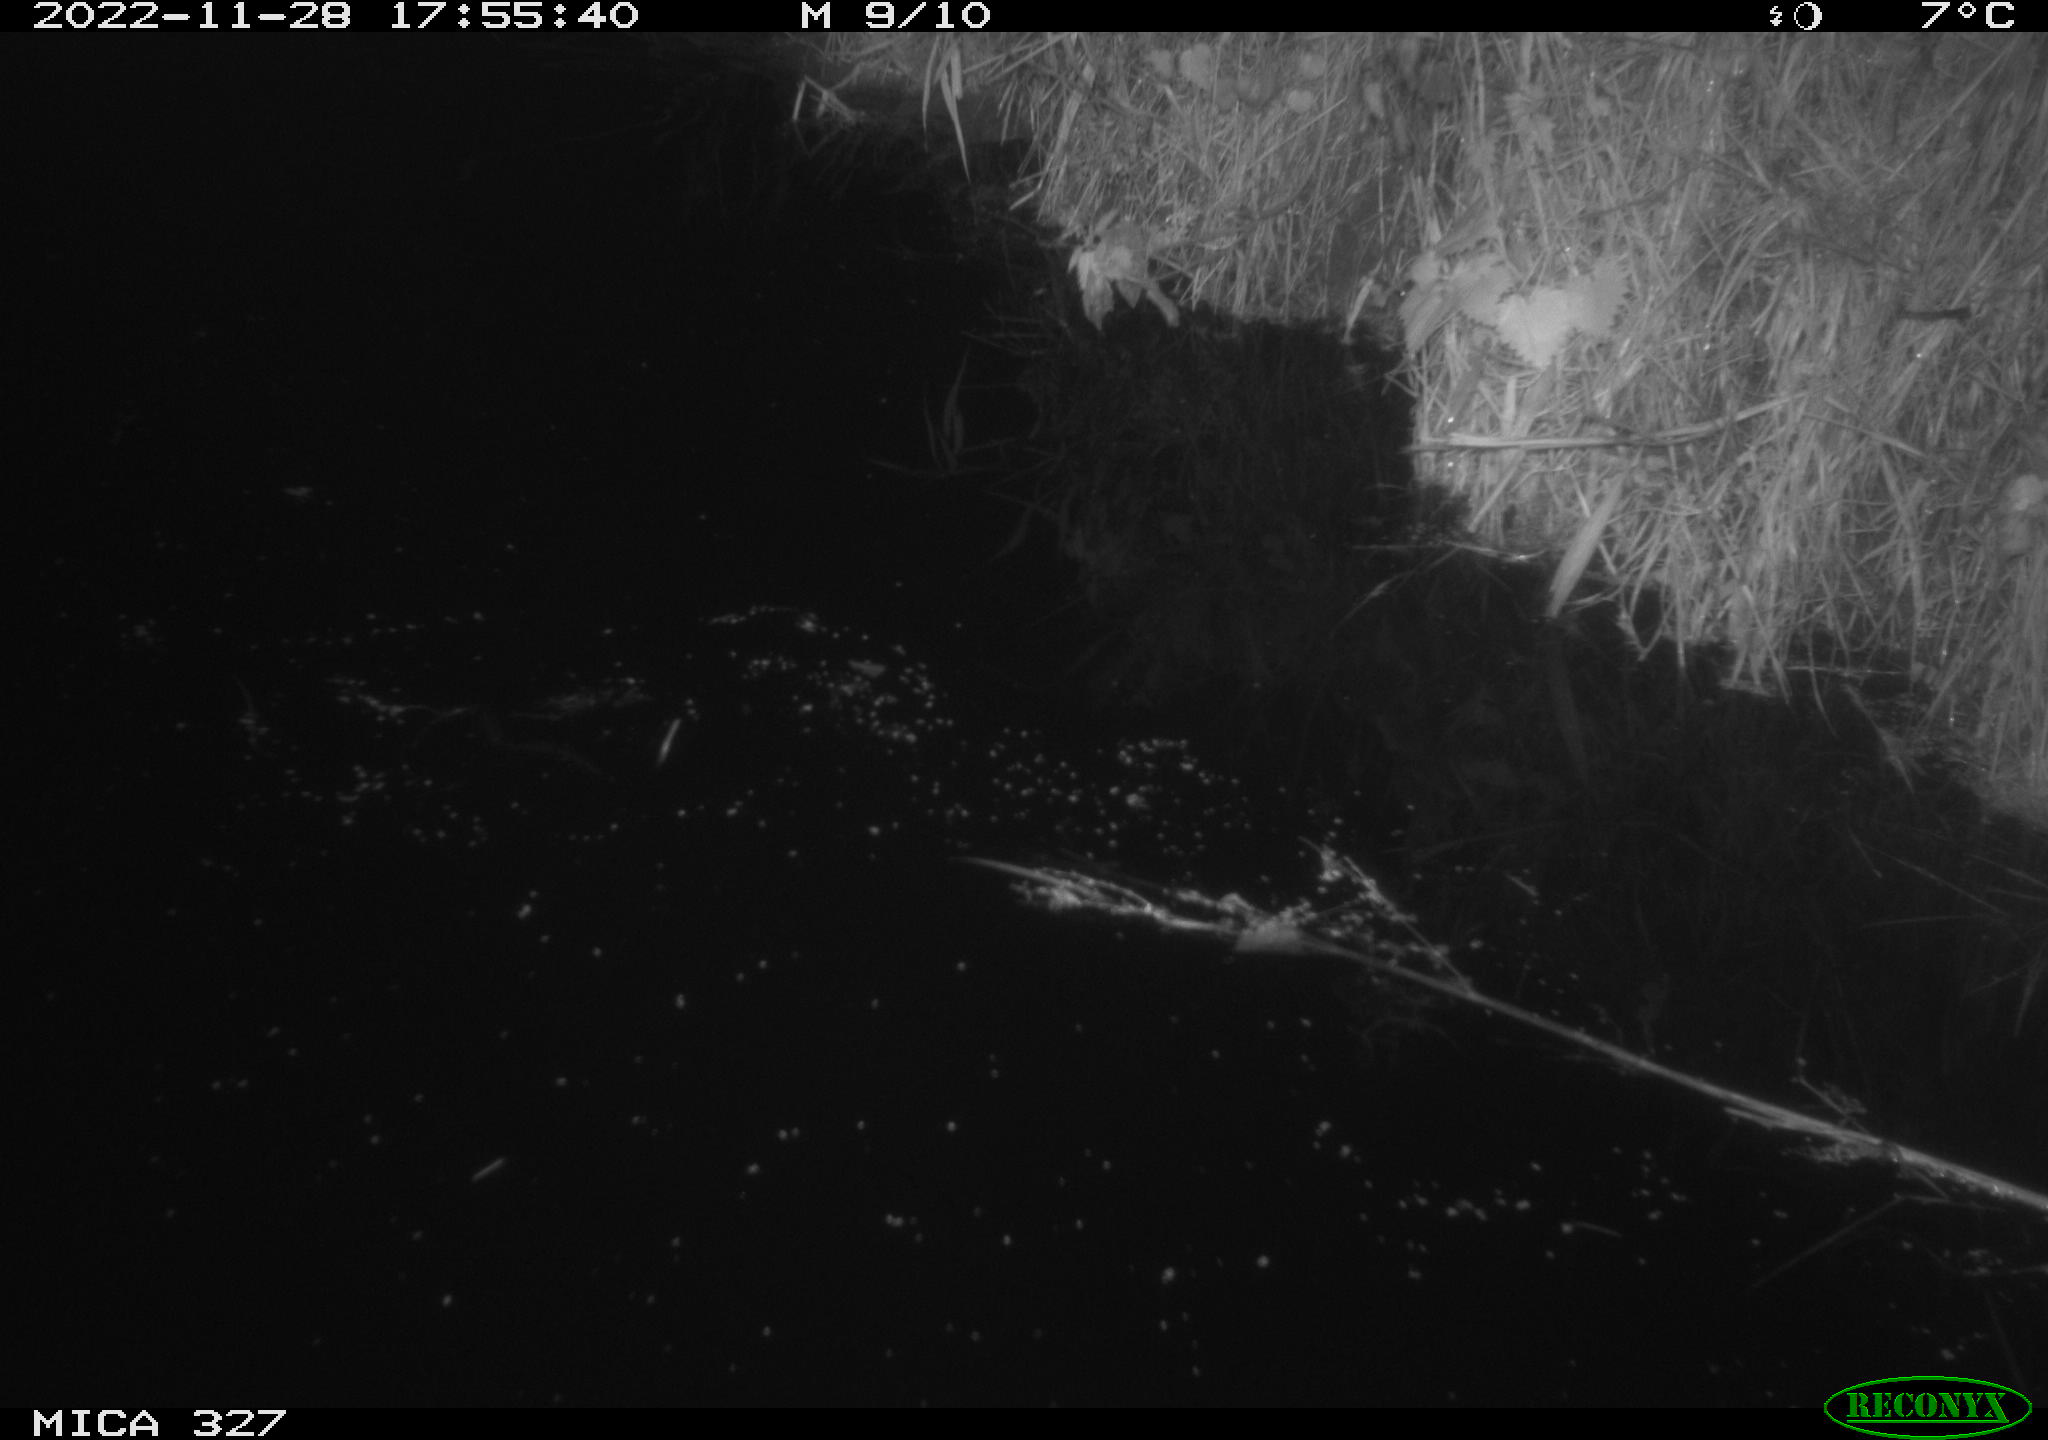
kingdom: Animalia
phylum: Chordata
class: Aves
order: Gruiformes
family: Rallidae
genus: Gallinula
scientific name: Gallinula chloropus
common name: Common moorhen
